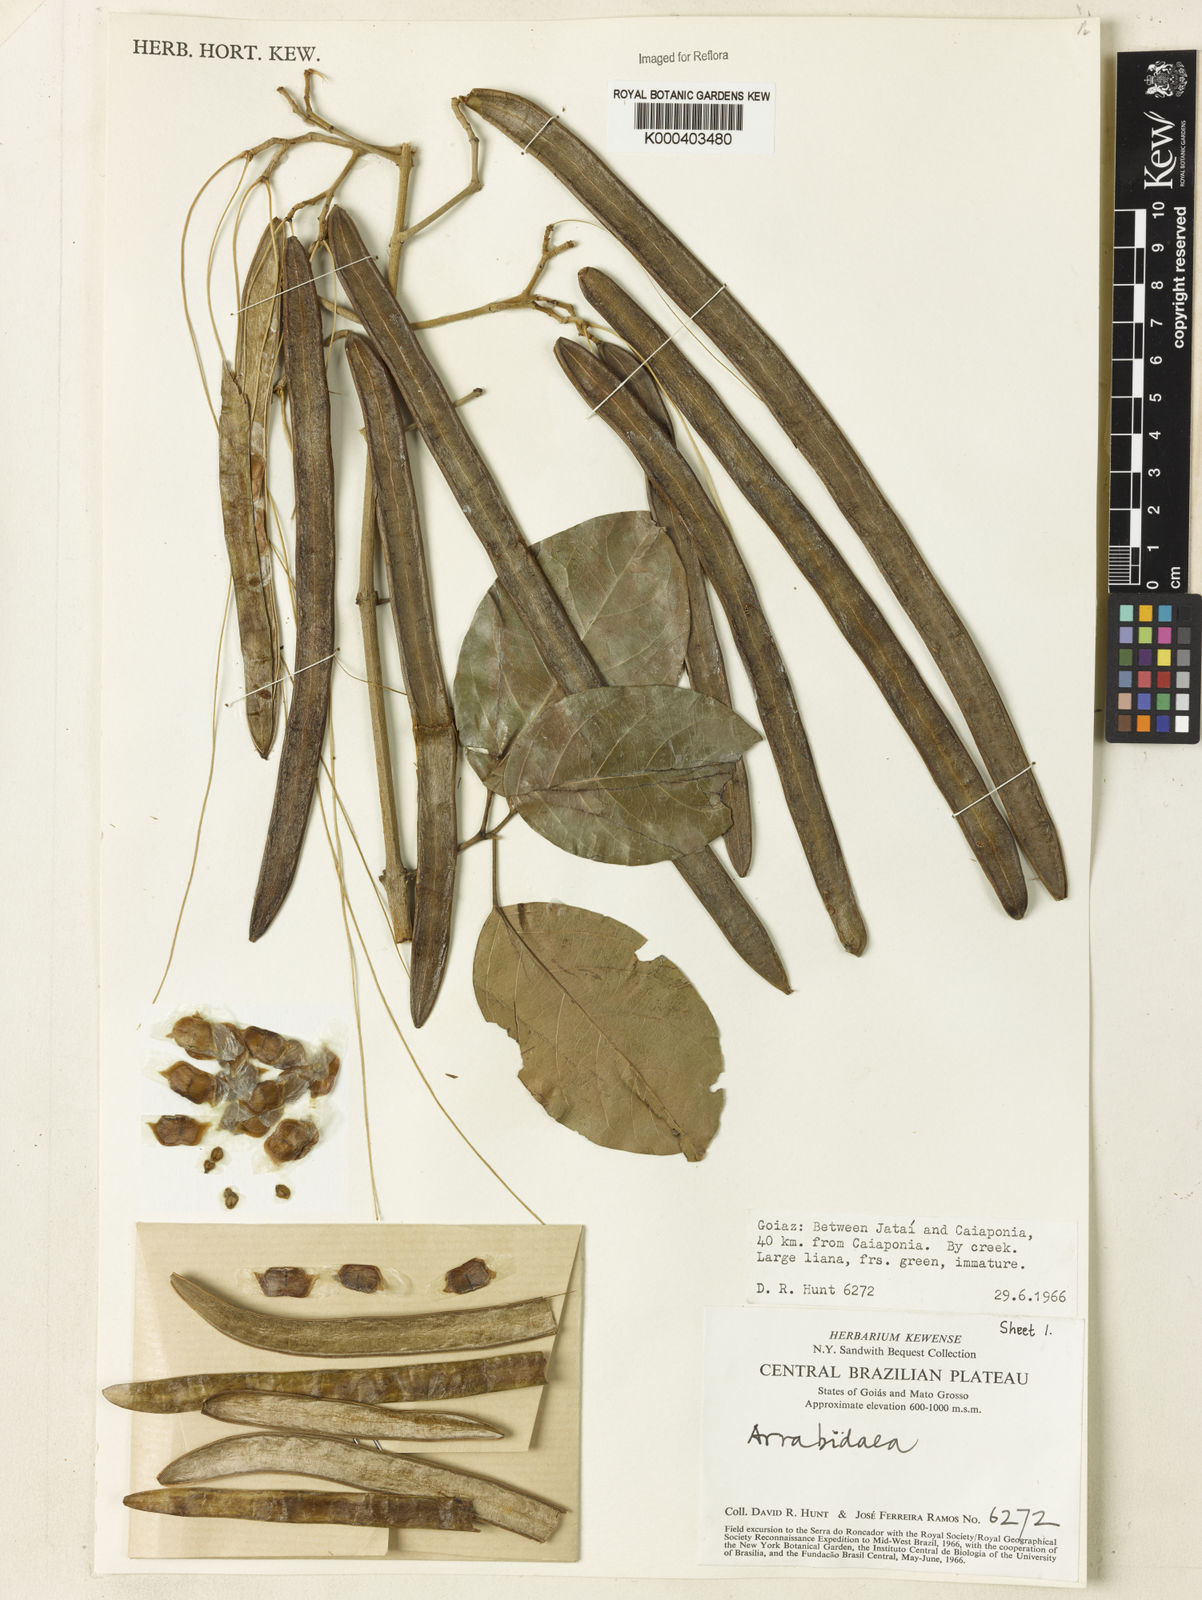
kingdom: Plantae
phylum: Tracheophyta
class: Magnoliopsida
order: Rosales
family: Rhamnaceae
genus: Arrabidaea
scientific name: Arrabidaea
